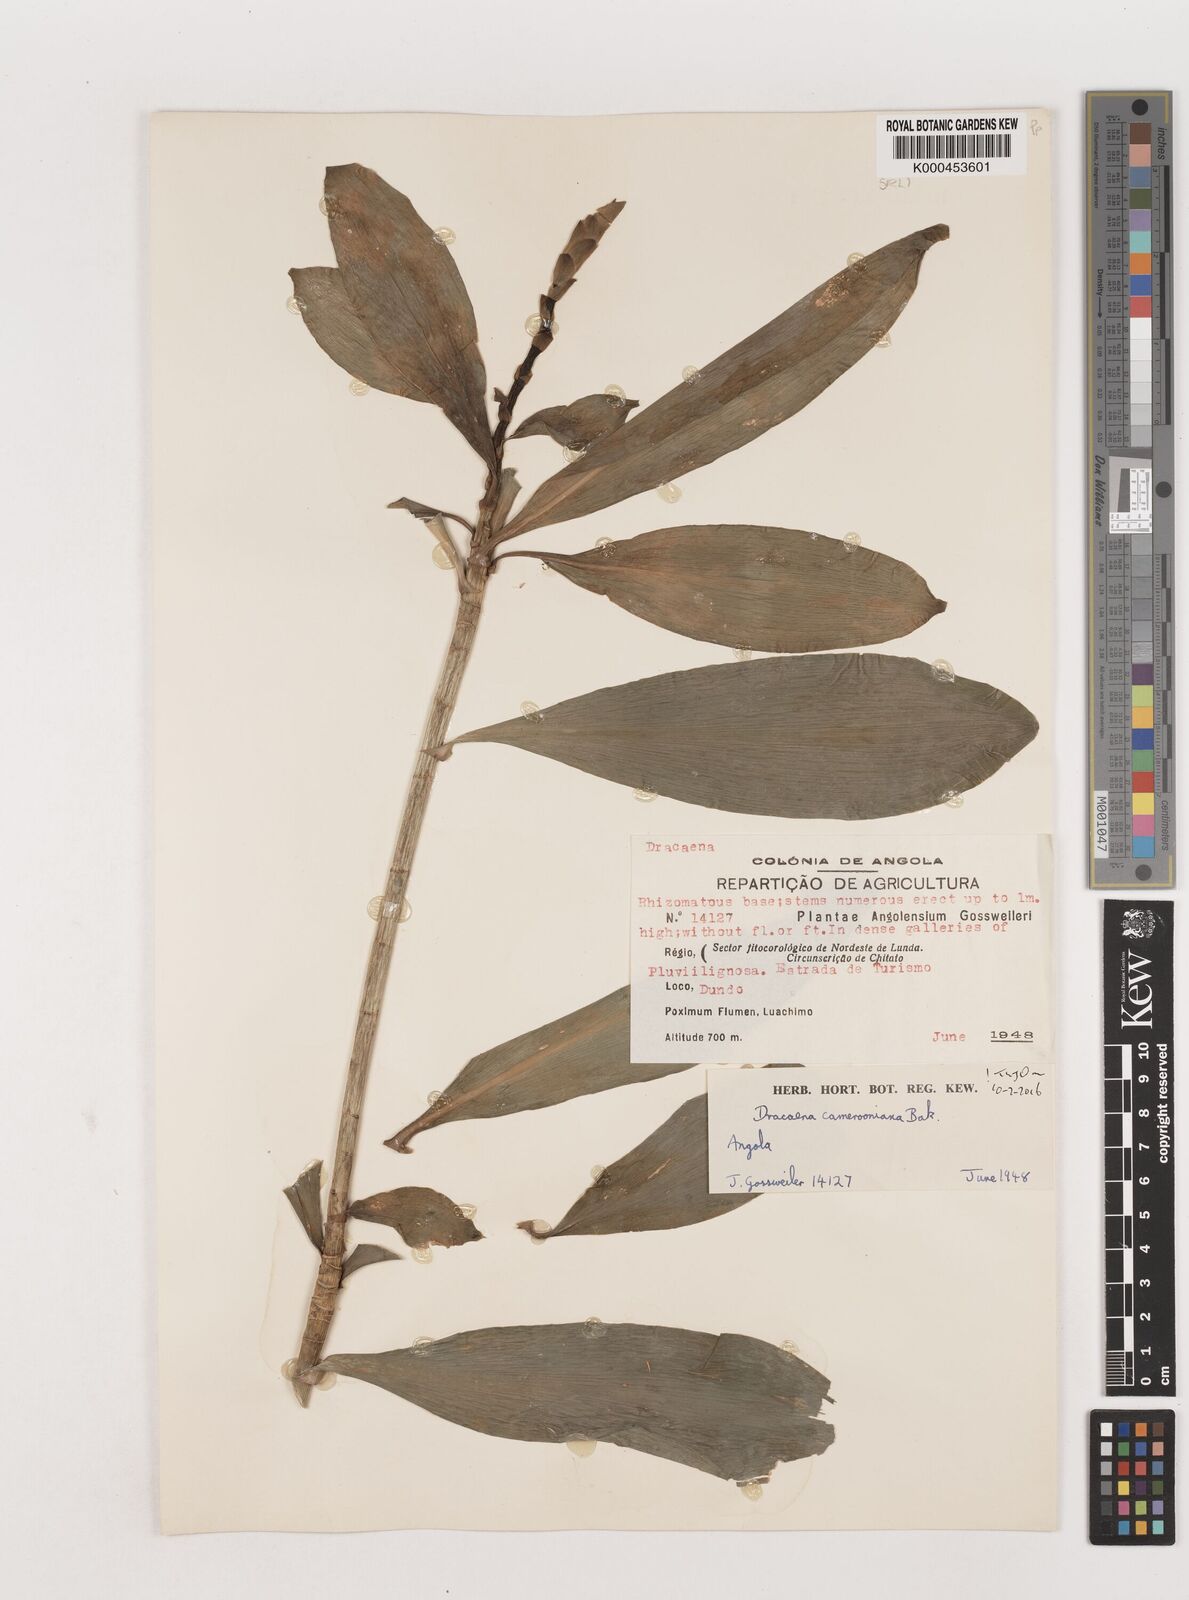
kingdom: Plantae
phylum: Tracheophyta
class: Liliopsida
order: Asparagales
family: Asparagaceae
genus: Dracaena
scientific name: Dracaena camerooniana
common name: Dragon tree
